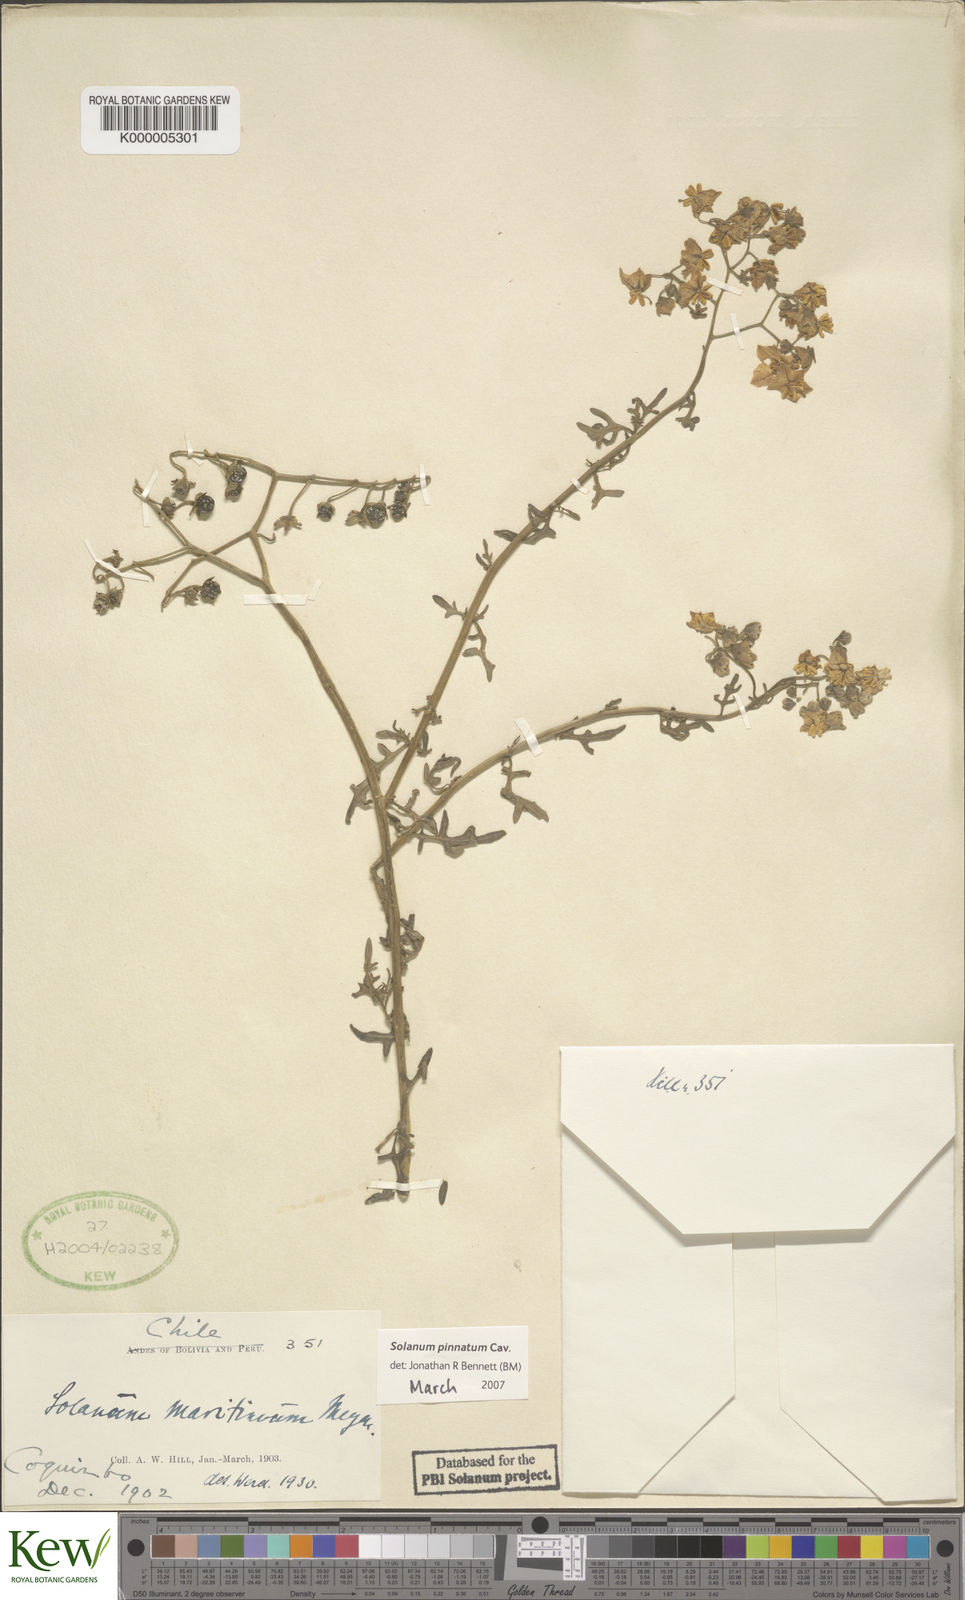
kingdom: Plantae
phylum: Tracheophyta
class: Magnoliopsida
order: Solanales
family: Solanaceae
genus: Solanum
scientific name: Solanum pinnatum
